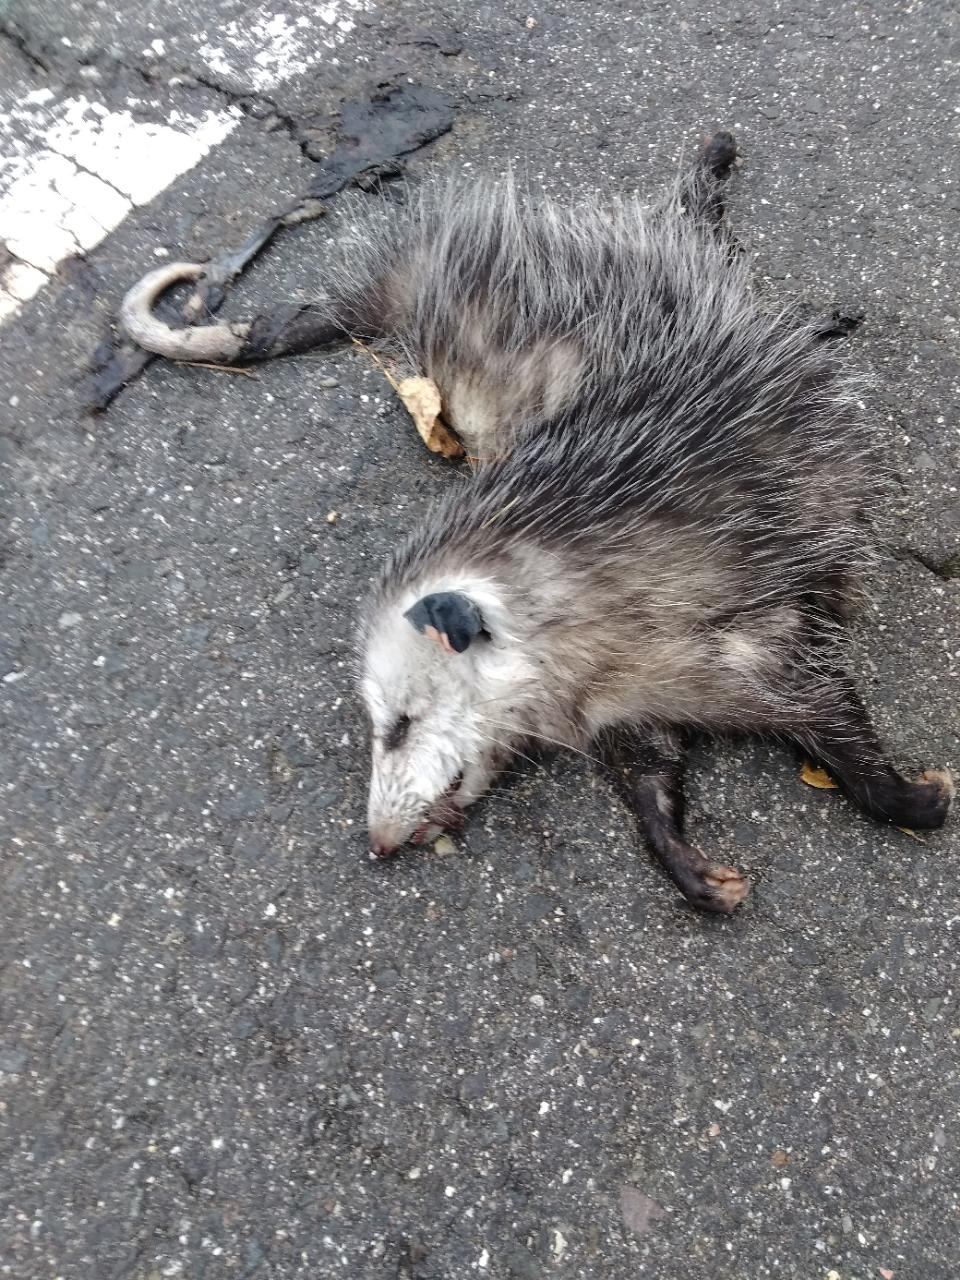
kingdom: Animalia
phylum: Chordata
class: Mammalia
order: Didelphimorphia
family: Didelphidae
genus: Didelphis
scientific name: Didelphis virginiana
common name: Virginia opossum
